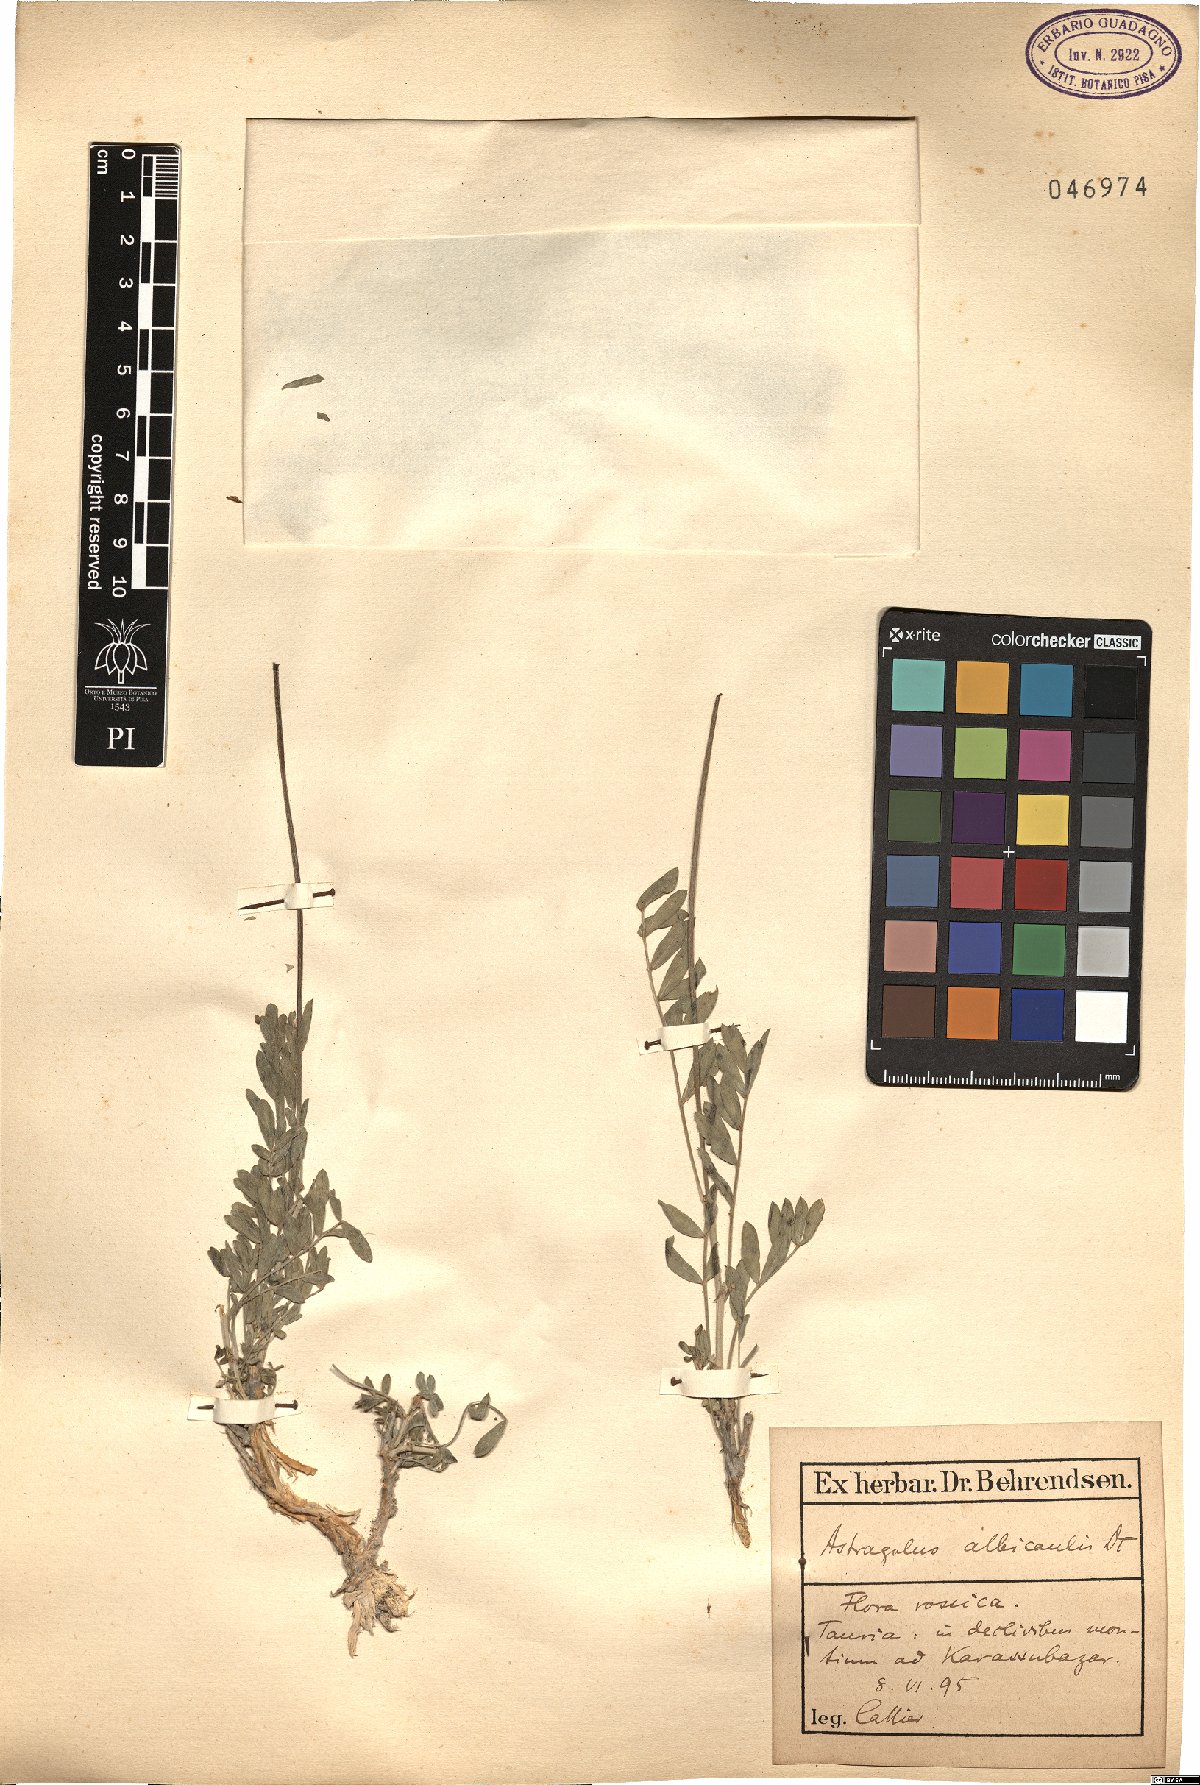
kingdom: Plantae
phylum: Tracheophyta
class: Magnoliopsida
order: Fabales
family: Fabaceae
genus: Astragalus
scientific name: Astragalus albicaulis
